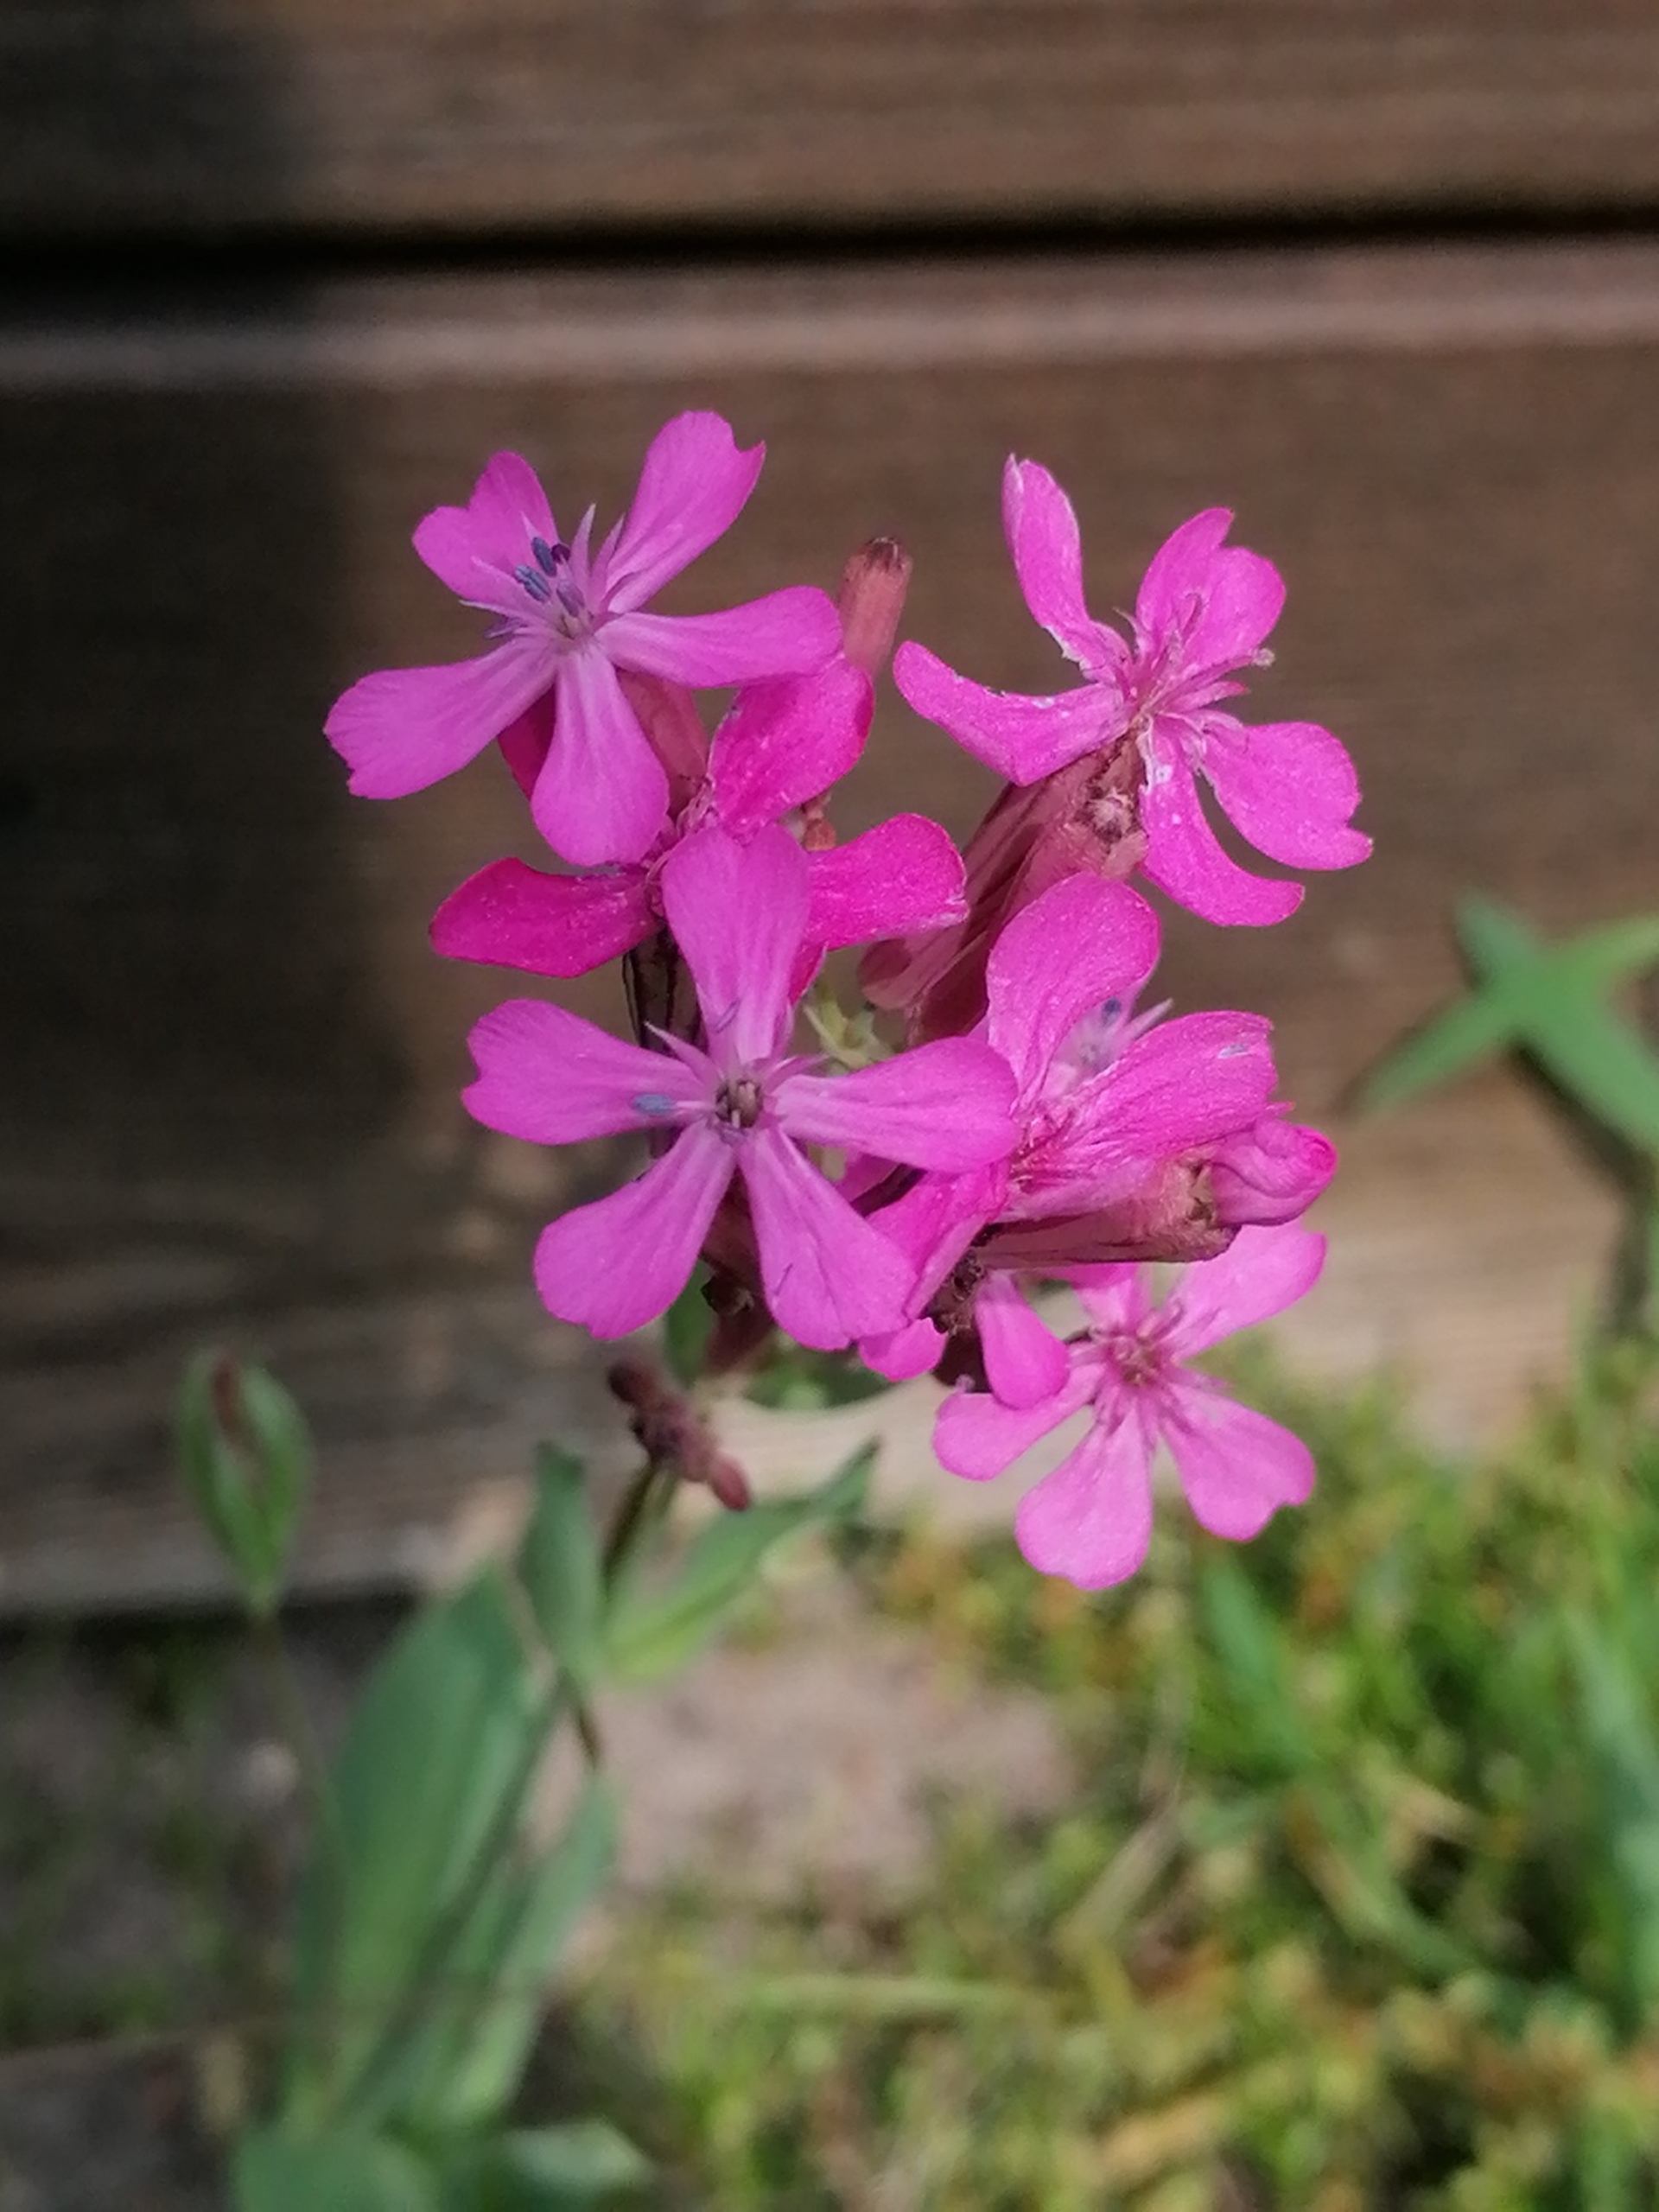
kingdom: Plantae
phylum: Tracheophyta
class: Magnoliopsida
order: Caryophyllales
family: Caryophyllaceae
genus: Viscaria
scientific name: Viscaria vulgaris
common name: Tjærenellike
